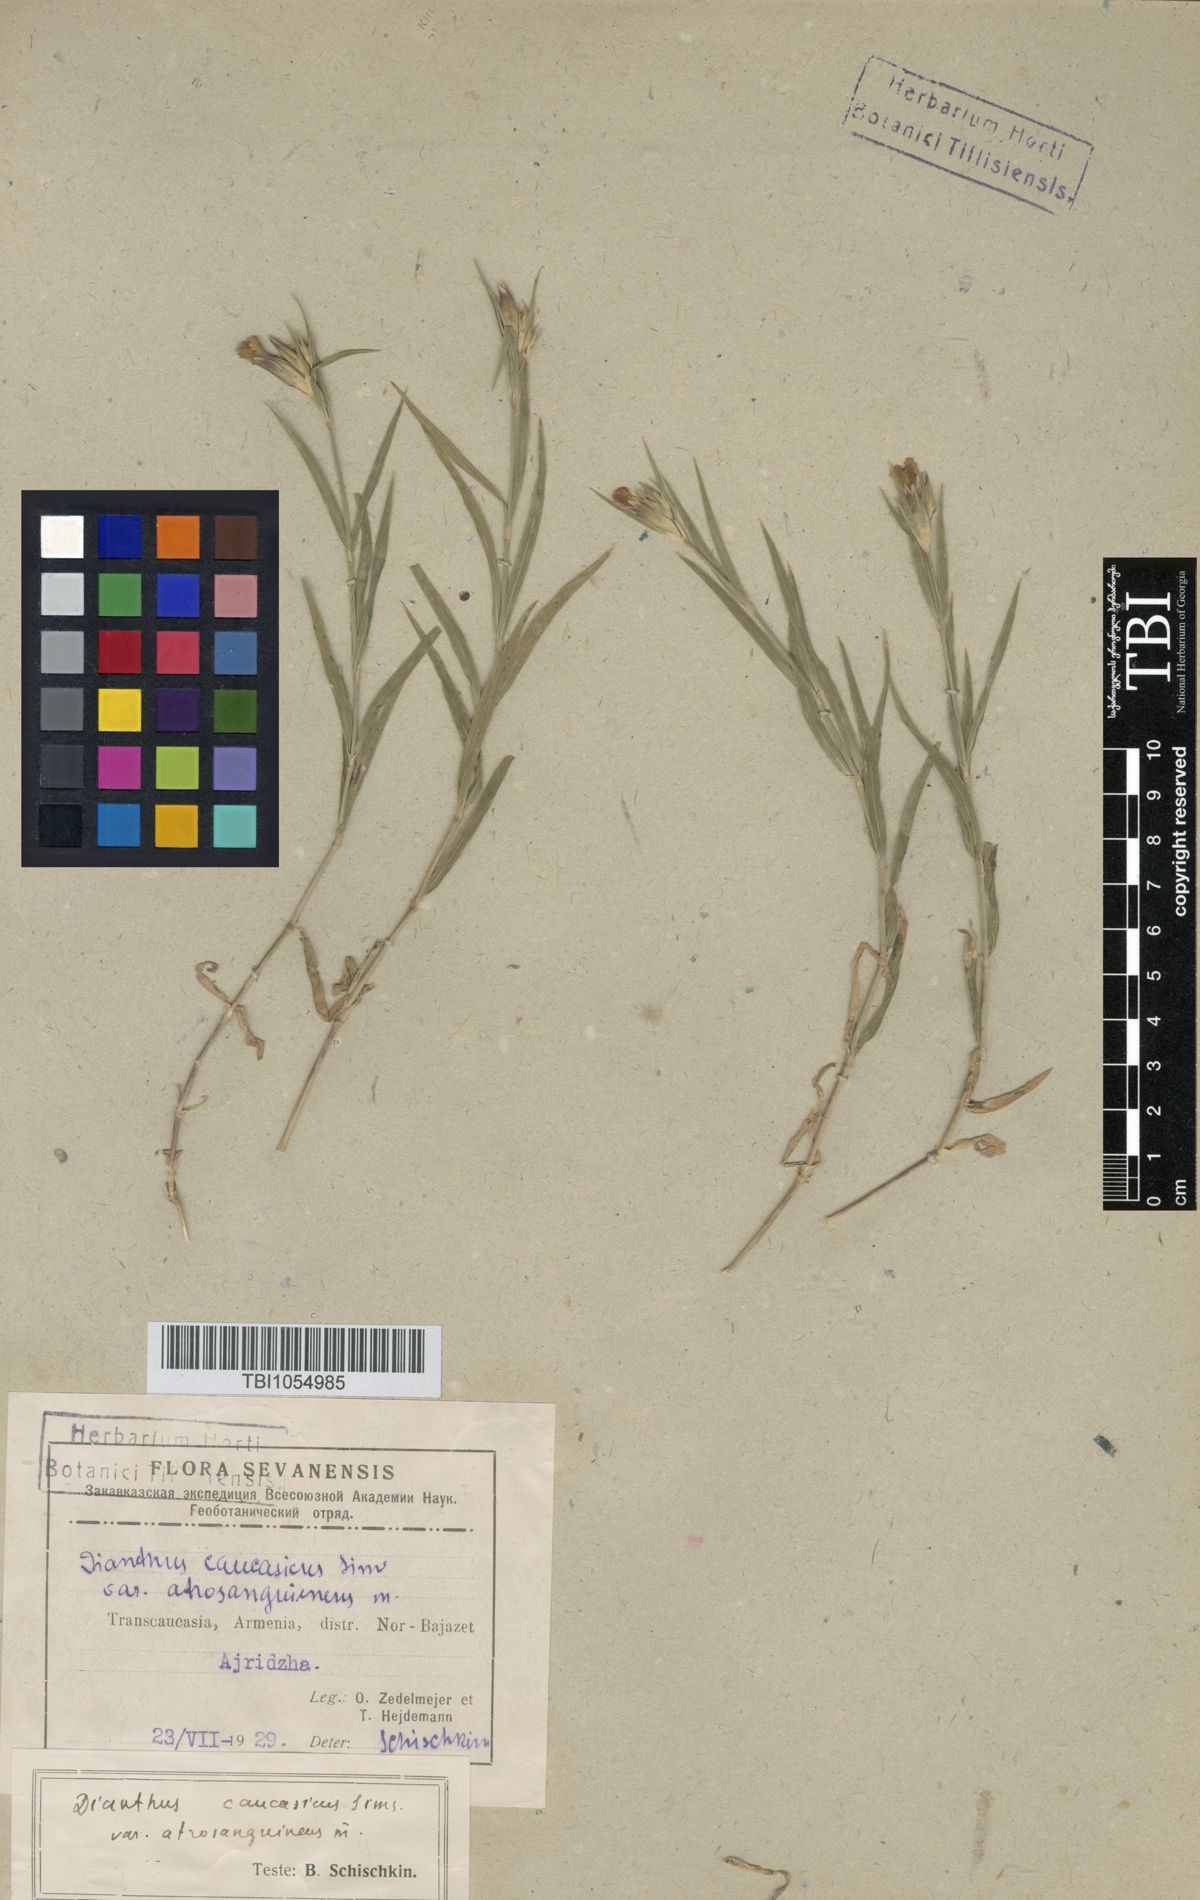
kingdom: Plantae
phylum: Tracheophyta
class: Magnoliopsida
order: Caryophyllales
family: Caryophyllaceae
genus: Dianthus
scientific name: Dianthus caucaseus
